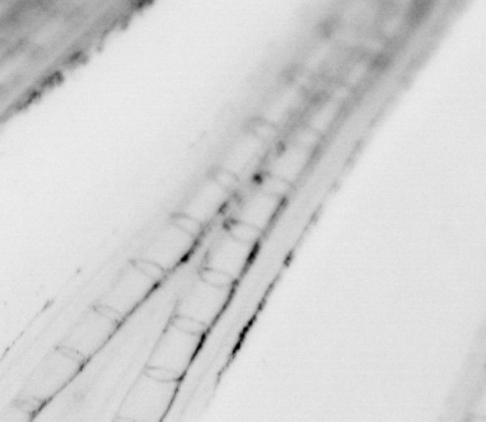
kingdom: Animalia
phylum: Chordata
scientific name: Chordata
